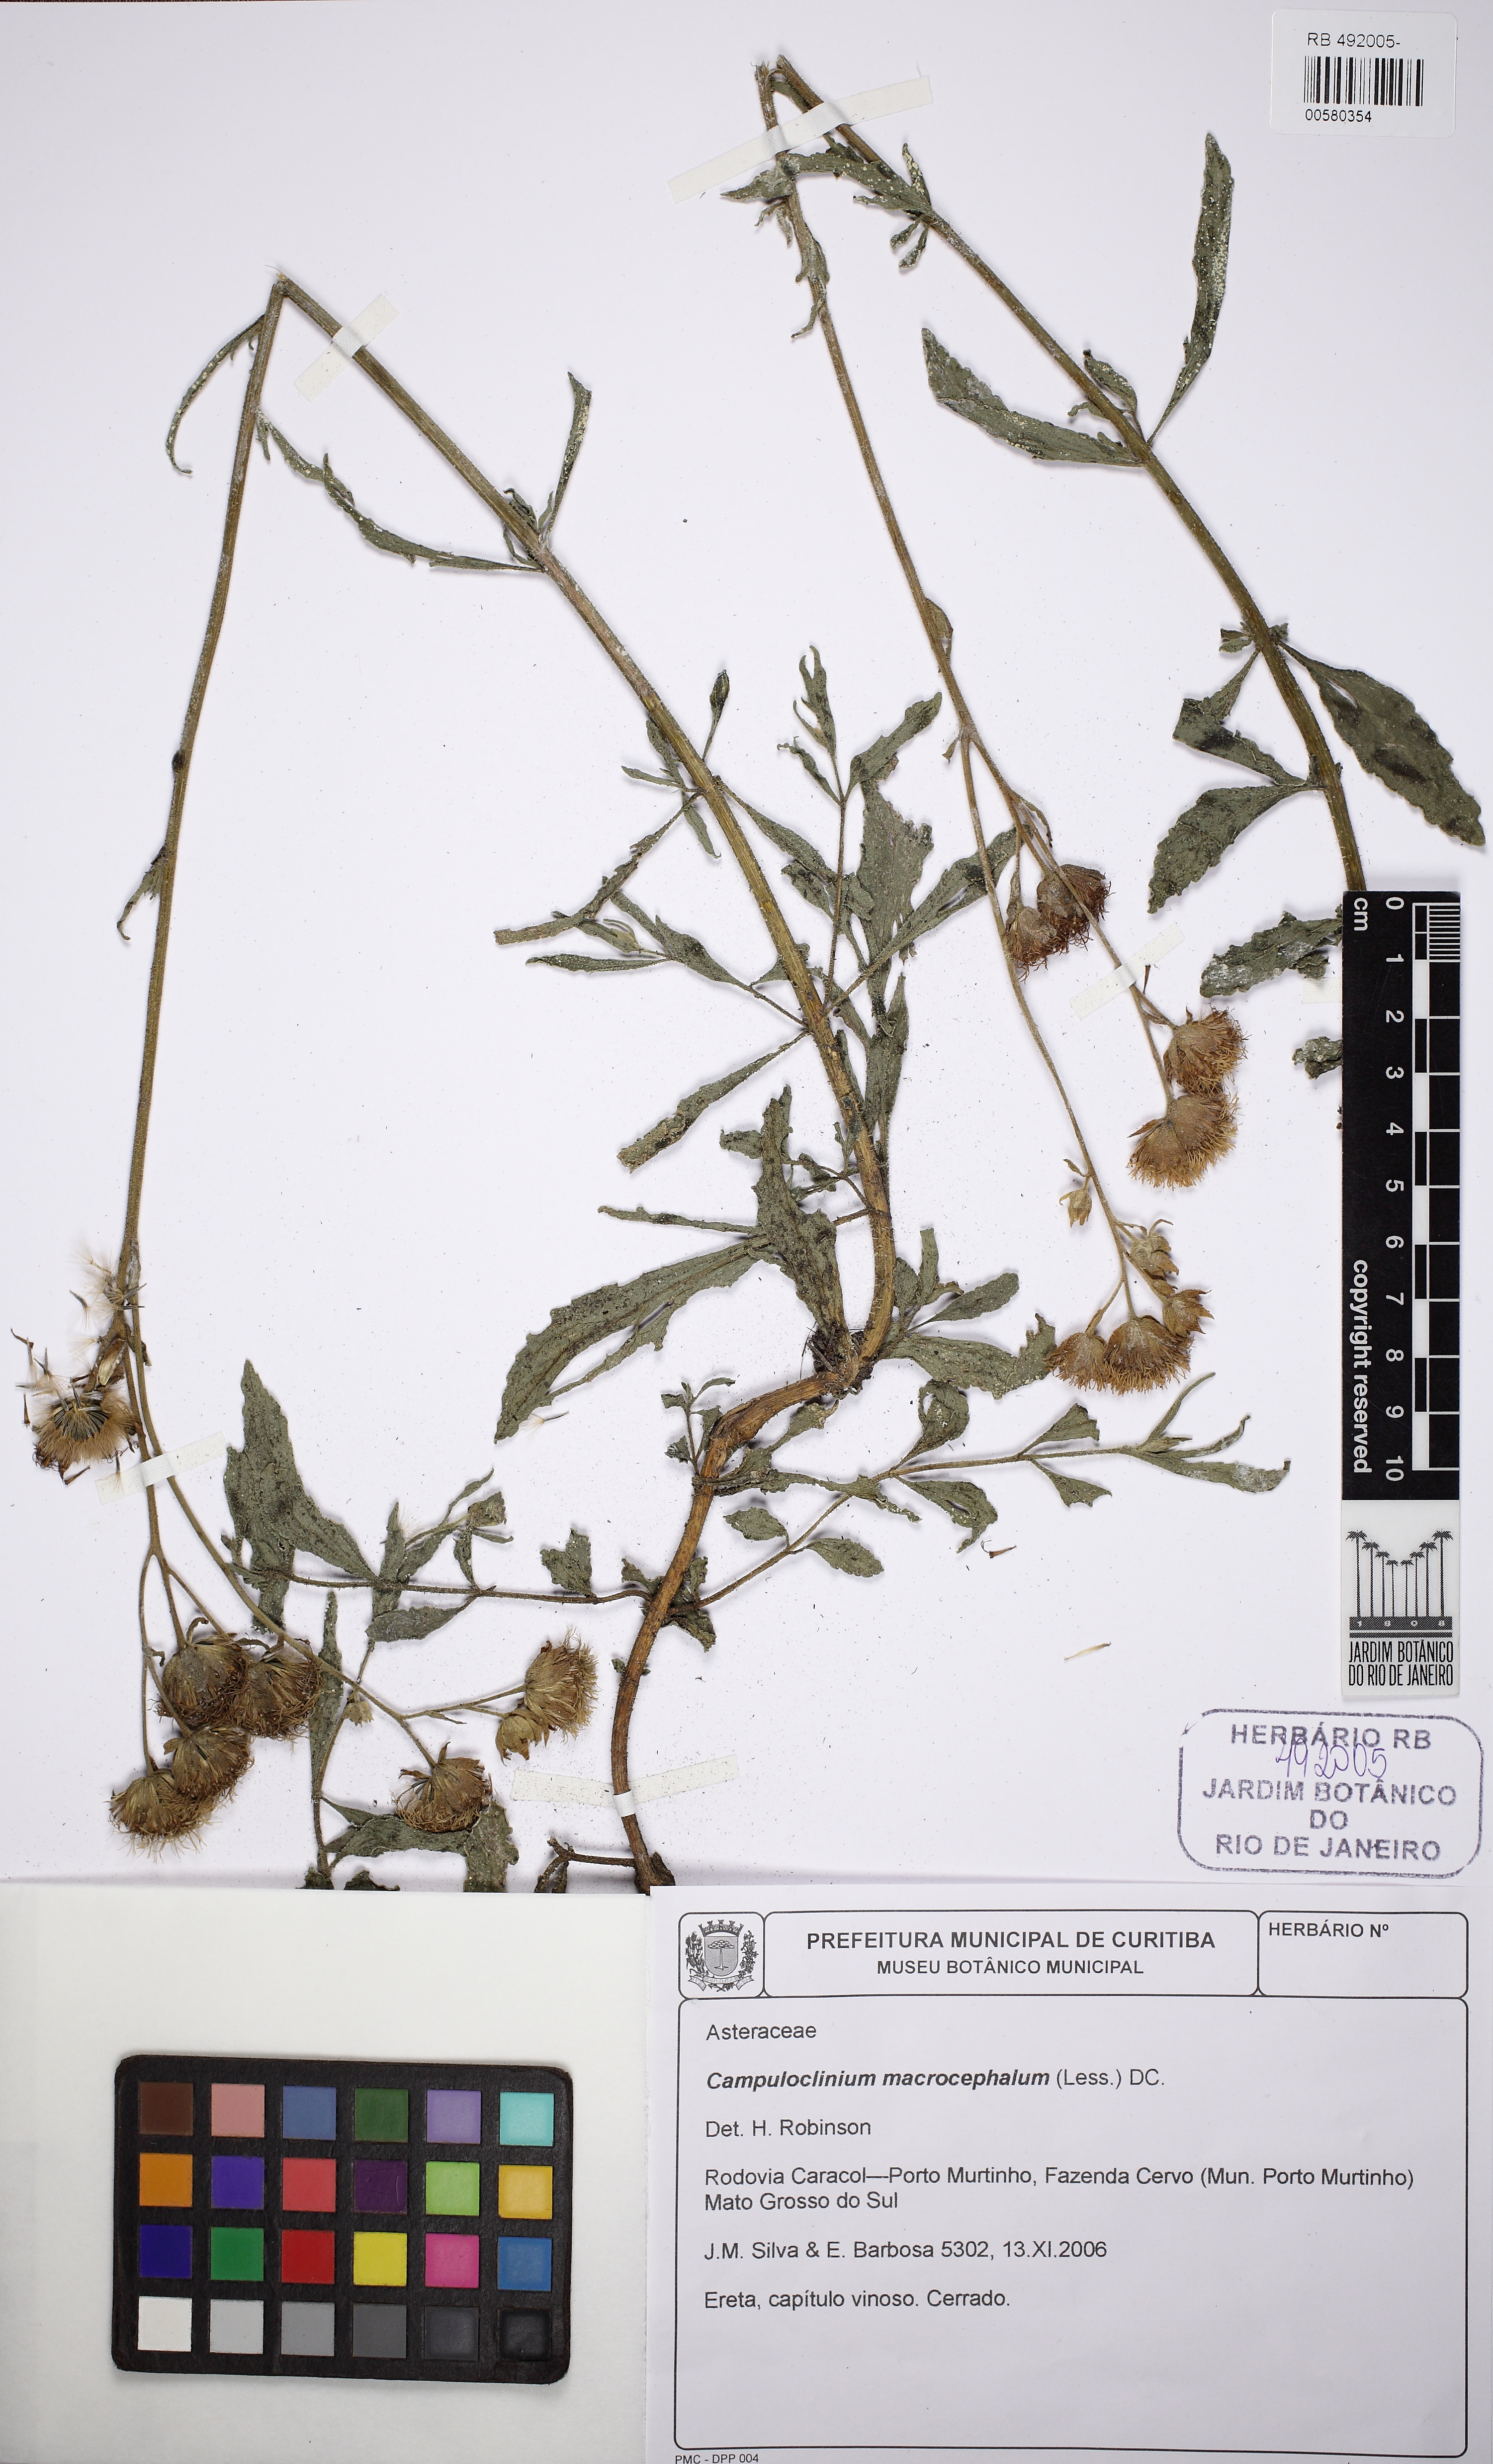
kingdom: Plantae
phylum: Tracheophyta
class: Magnoliopsida
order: Asterales
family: Asteraceae
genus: Campuloclinium
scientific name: Campuloclinium macrocephalum
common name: Pompomweed
